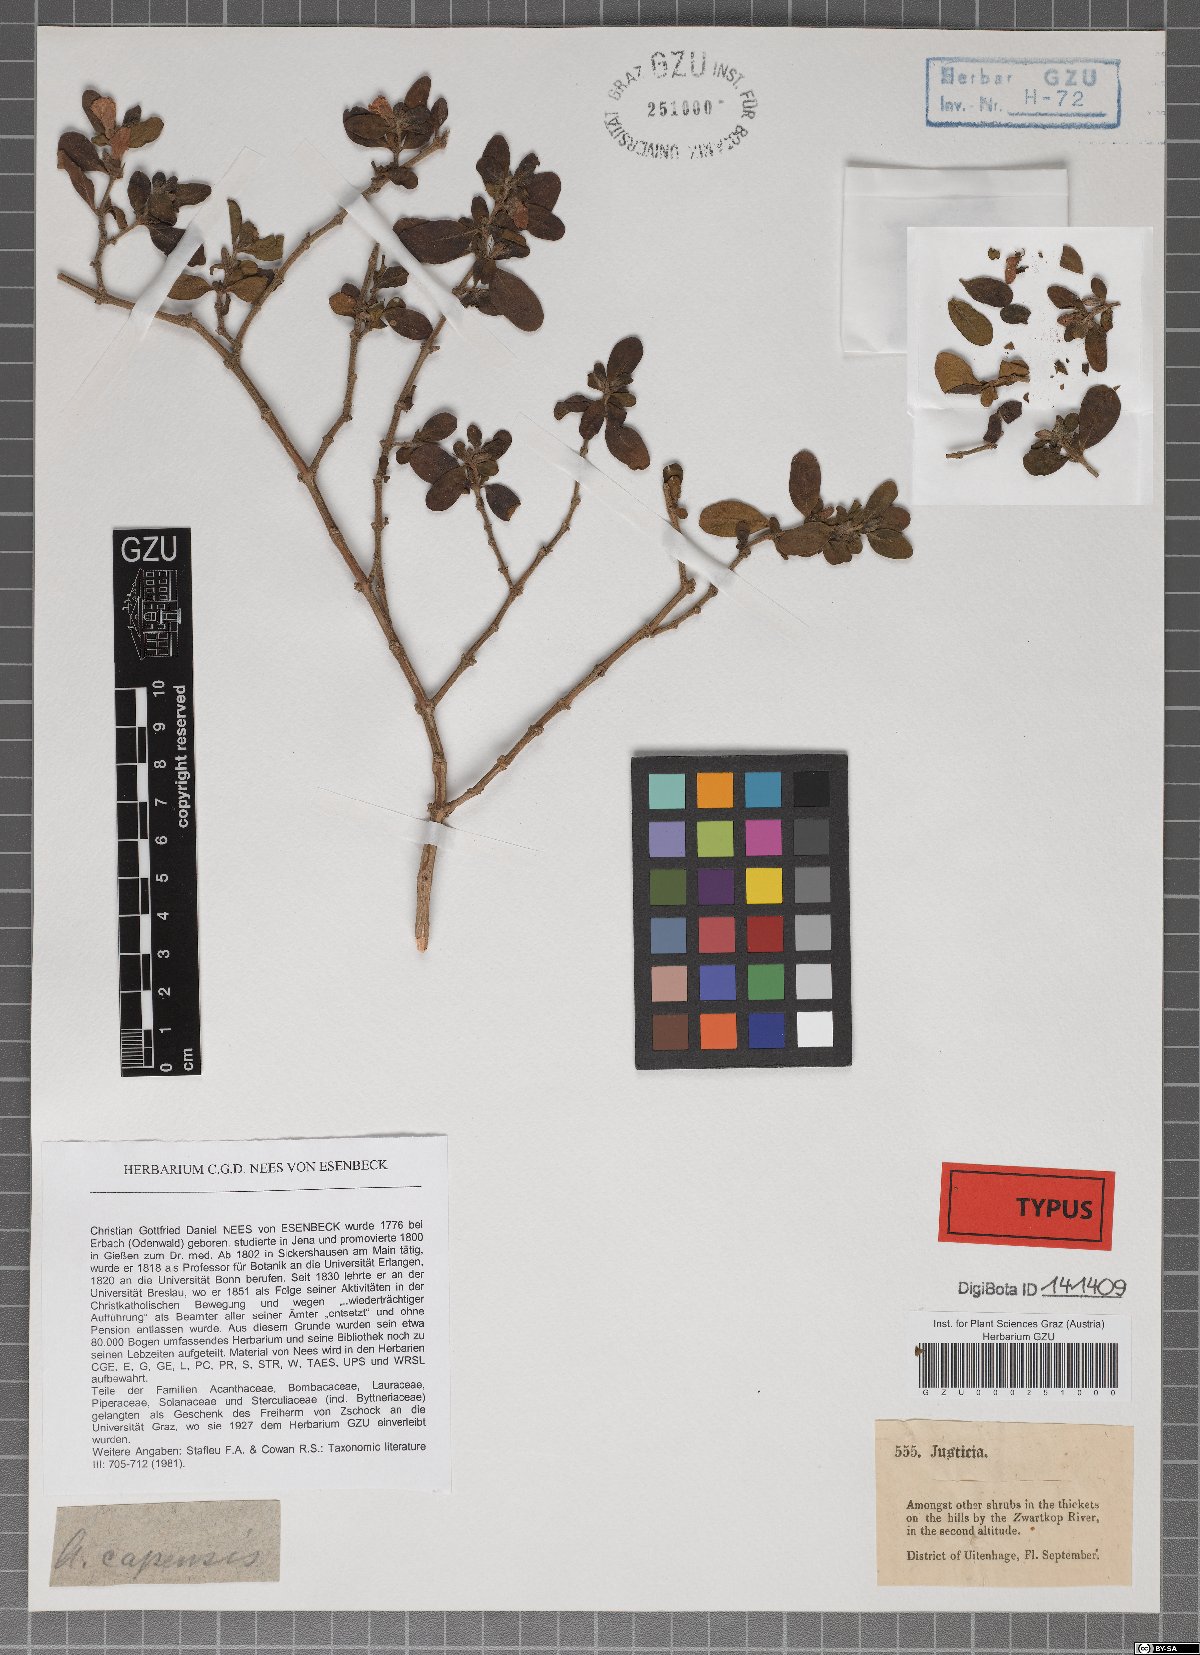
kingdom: Plantae
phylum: Tracheophyta
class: Magnoliopsida
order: Lamiales
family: Acanthaceae
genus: Justicia
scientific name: Justicia capensis
